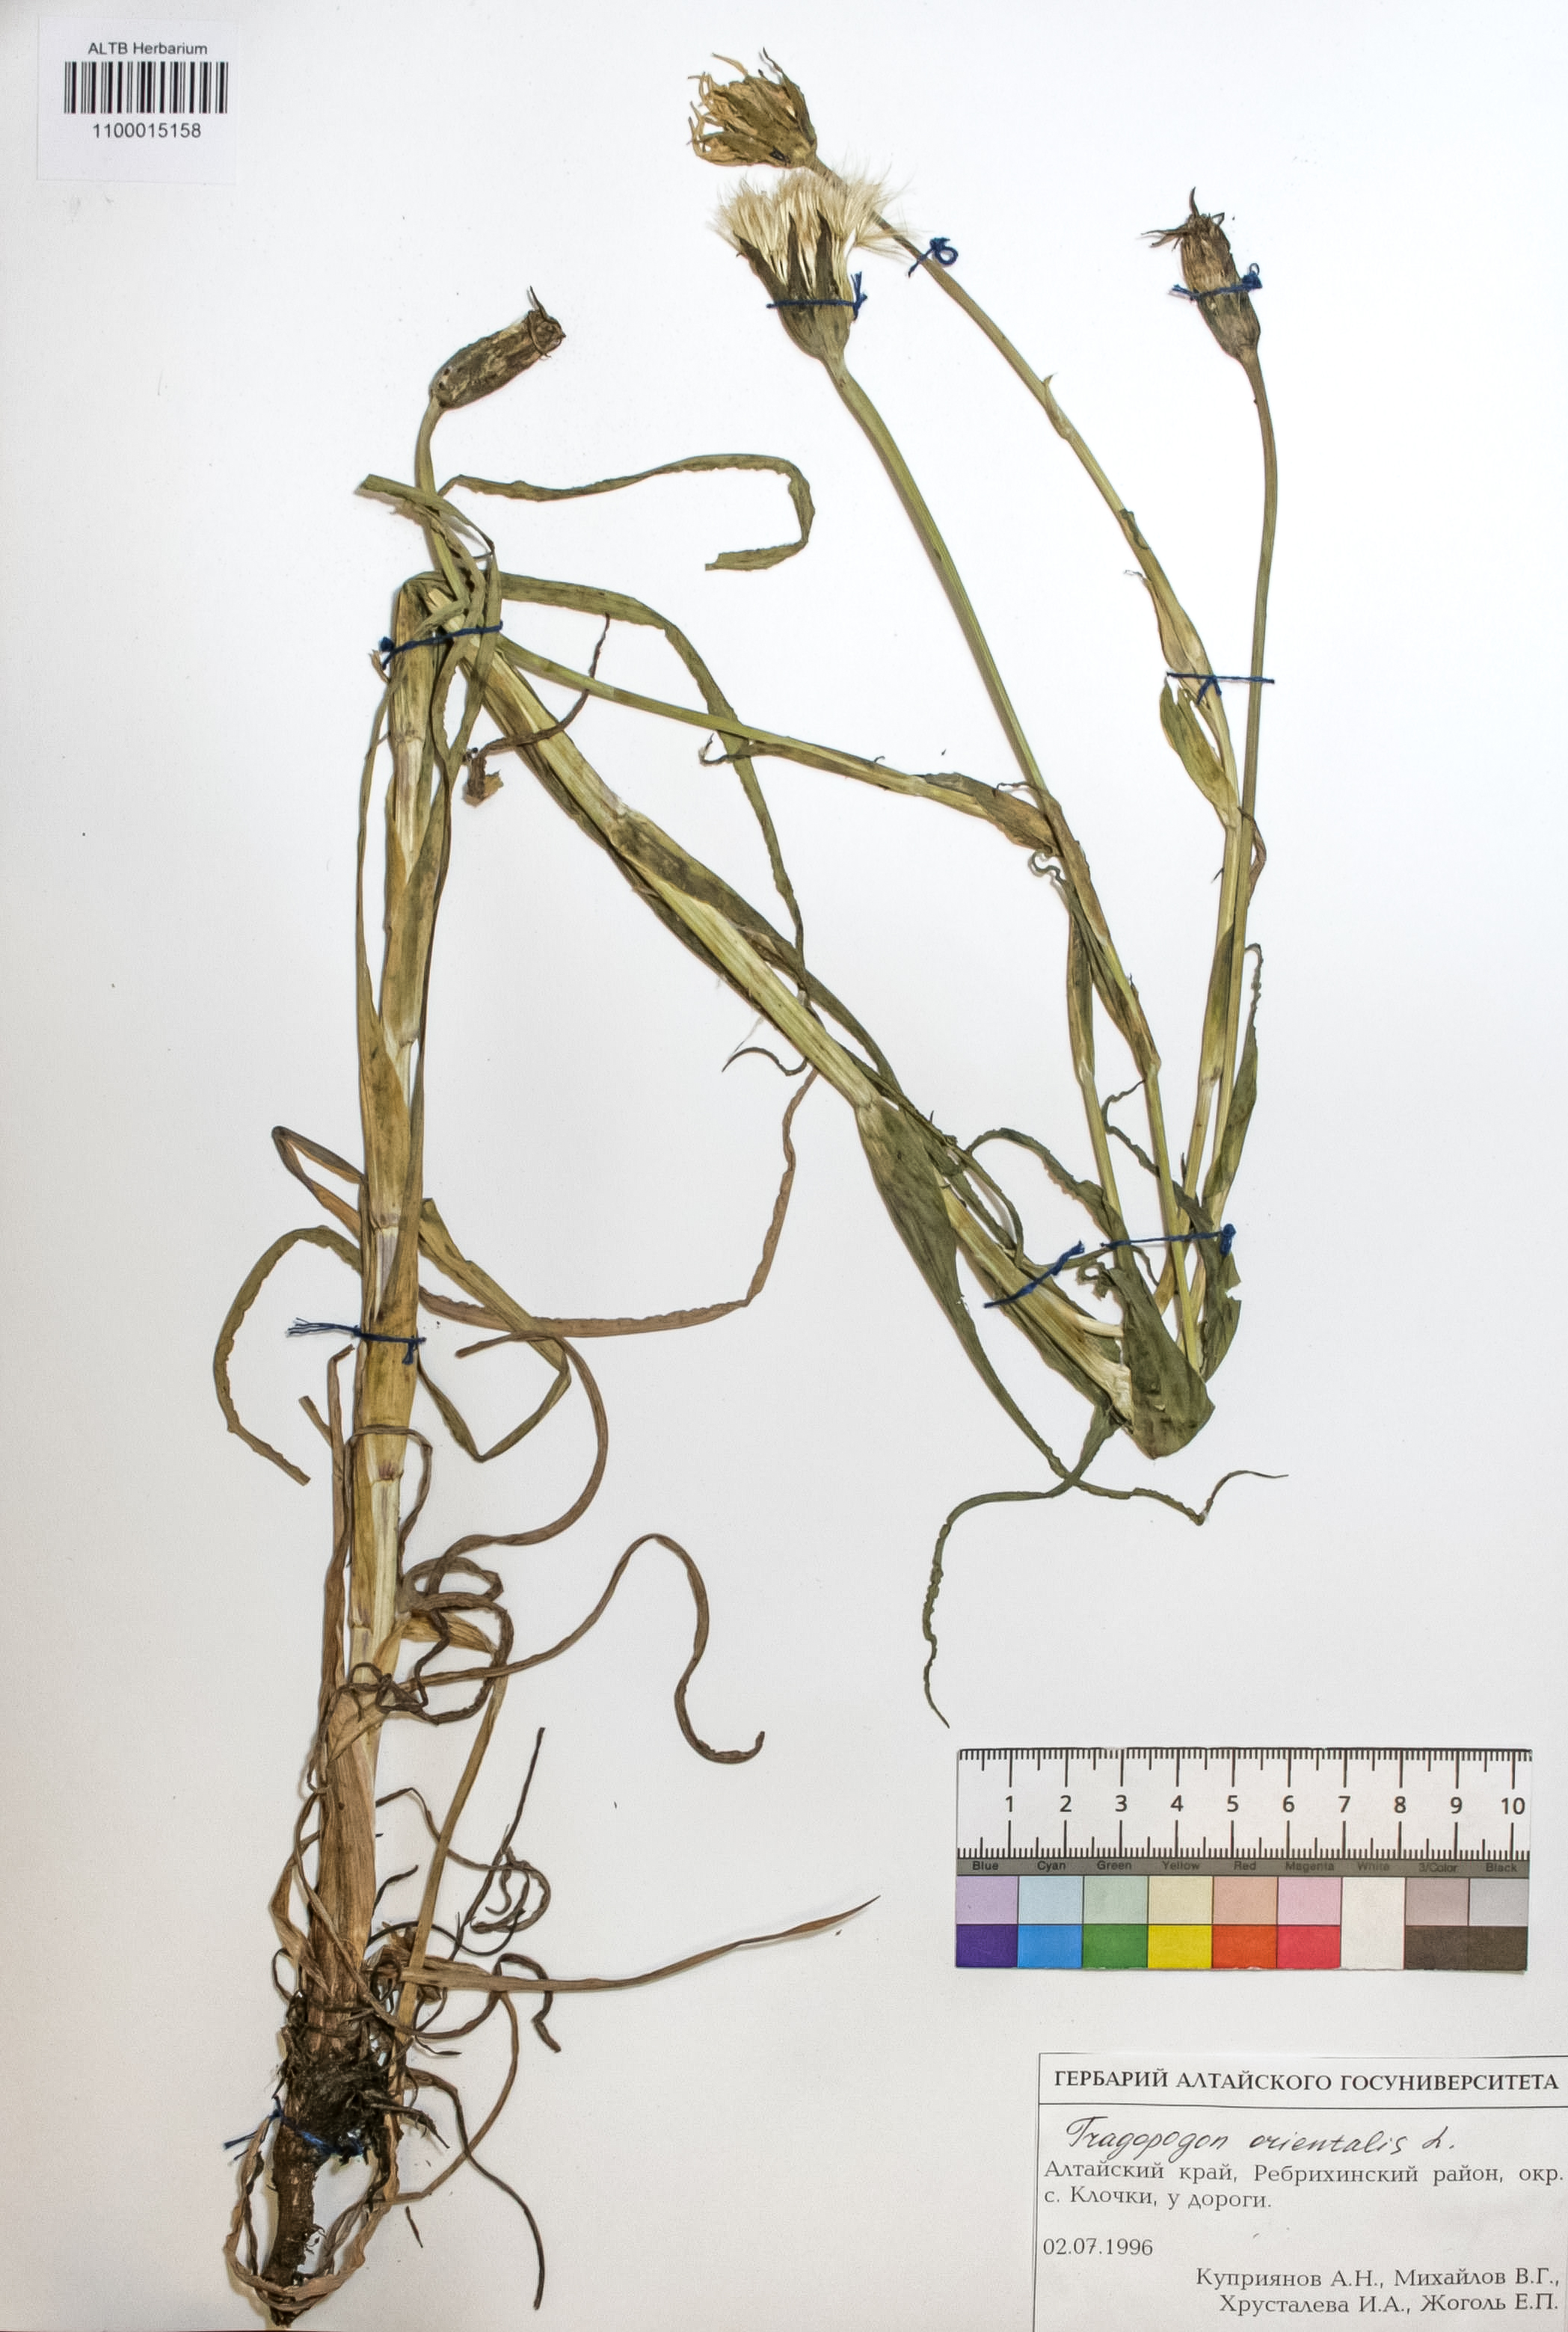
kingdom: Plantae
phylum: Tracheophyta
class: Magnoliopsida
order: Asterales
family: Asteraceae
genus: Tragopogon
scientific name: Tragopogon orientalis
